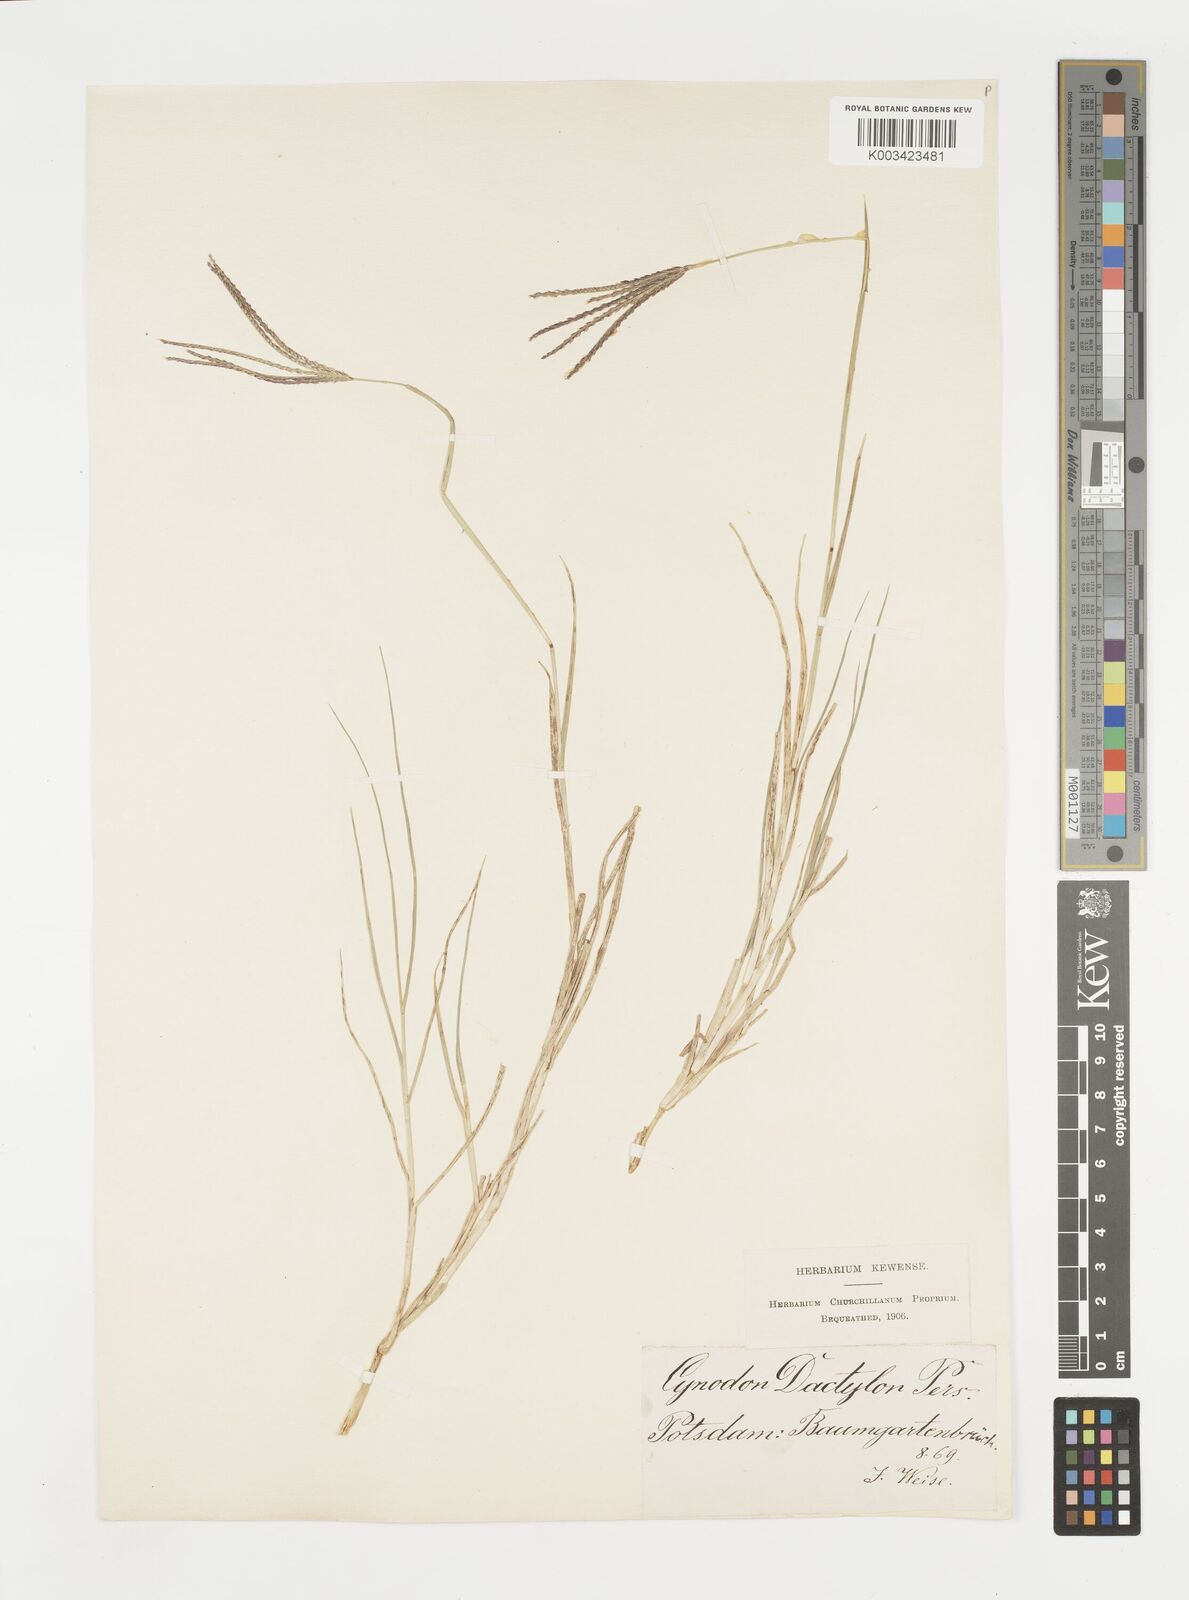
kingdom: Plantae
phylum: Tracheophyta
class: Liliopsida
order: Poales
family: Poaceae
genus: Cynodon
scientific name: Cynodon dactylon
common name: Bermuda grass
